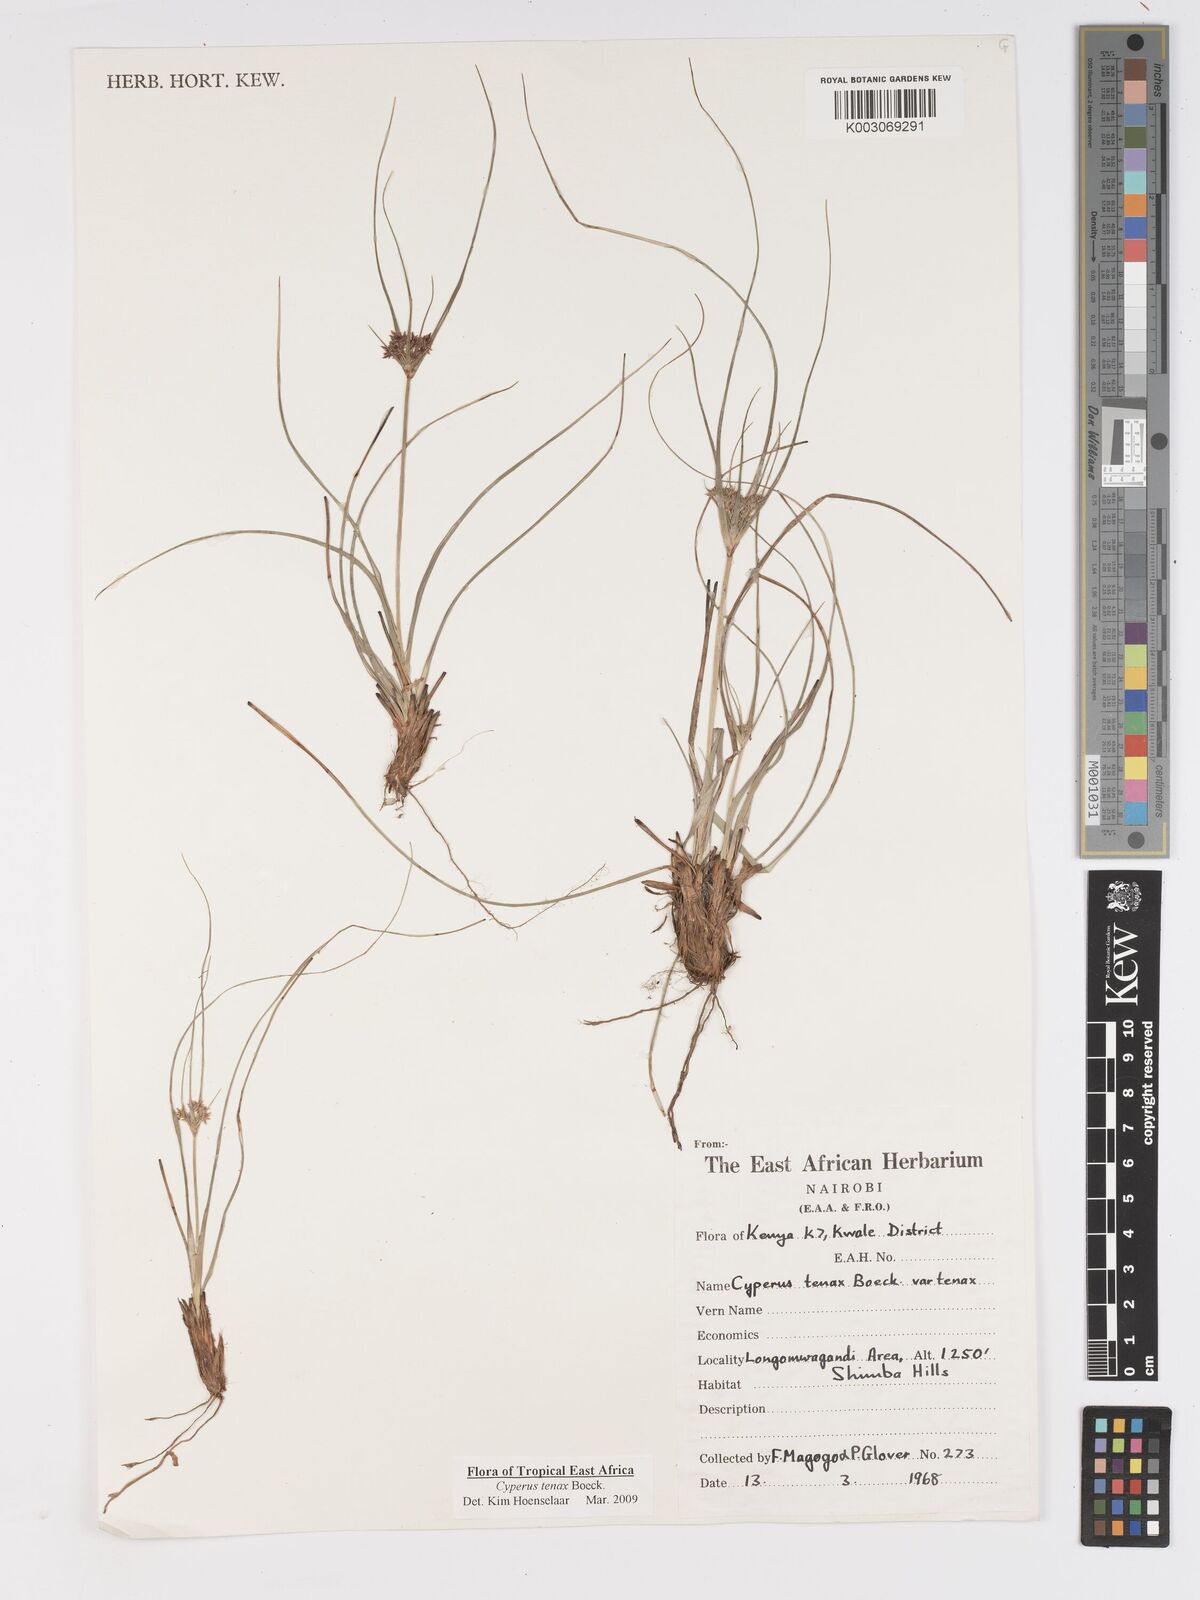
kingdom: Plantae
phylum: Tracheophyta
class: Liliopsida
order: Poales
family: Cyperaceae
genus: Cyperus
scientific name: Cyperus tenax
